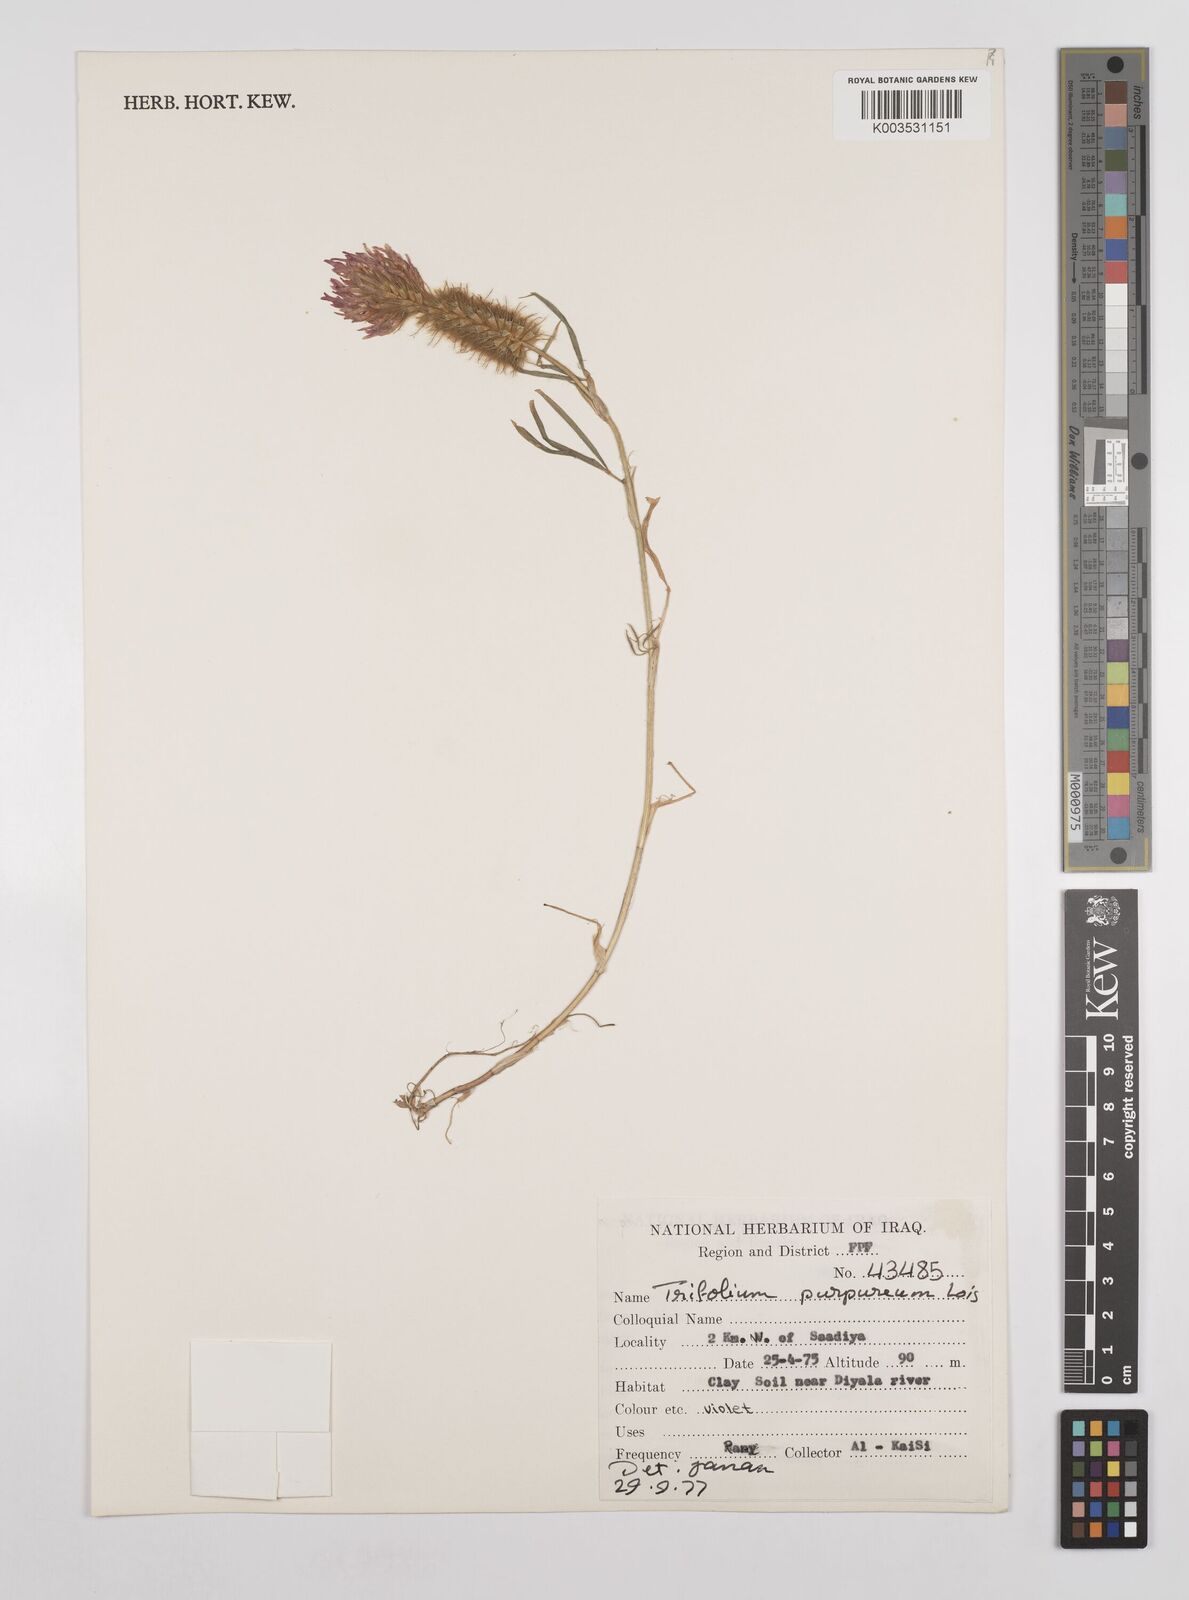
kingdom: Plantae
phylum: Tracheophyta
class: Magnoliopsida
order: Fabales
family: Fabaceae
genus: Trifolium
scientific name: Trifolium purpureum
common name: Purple clover
